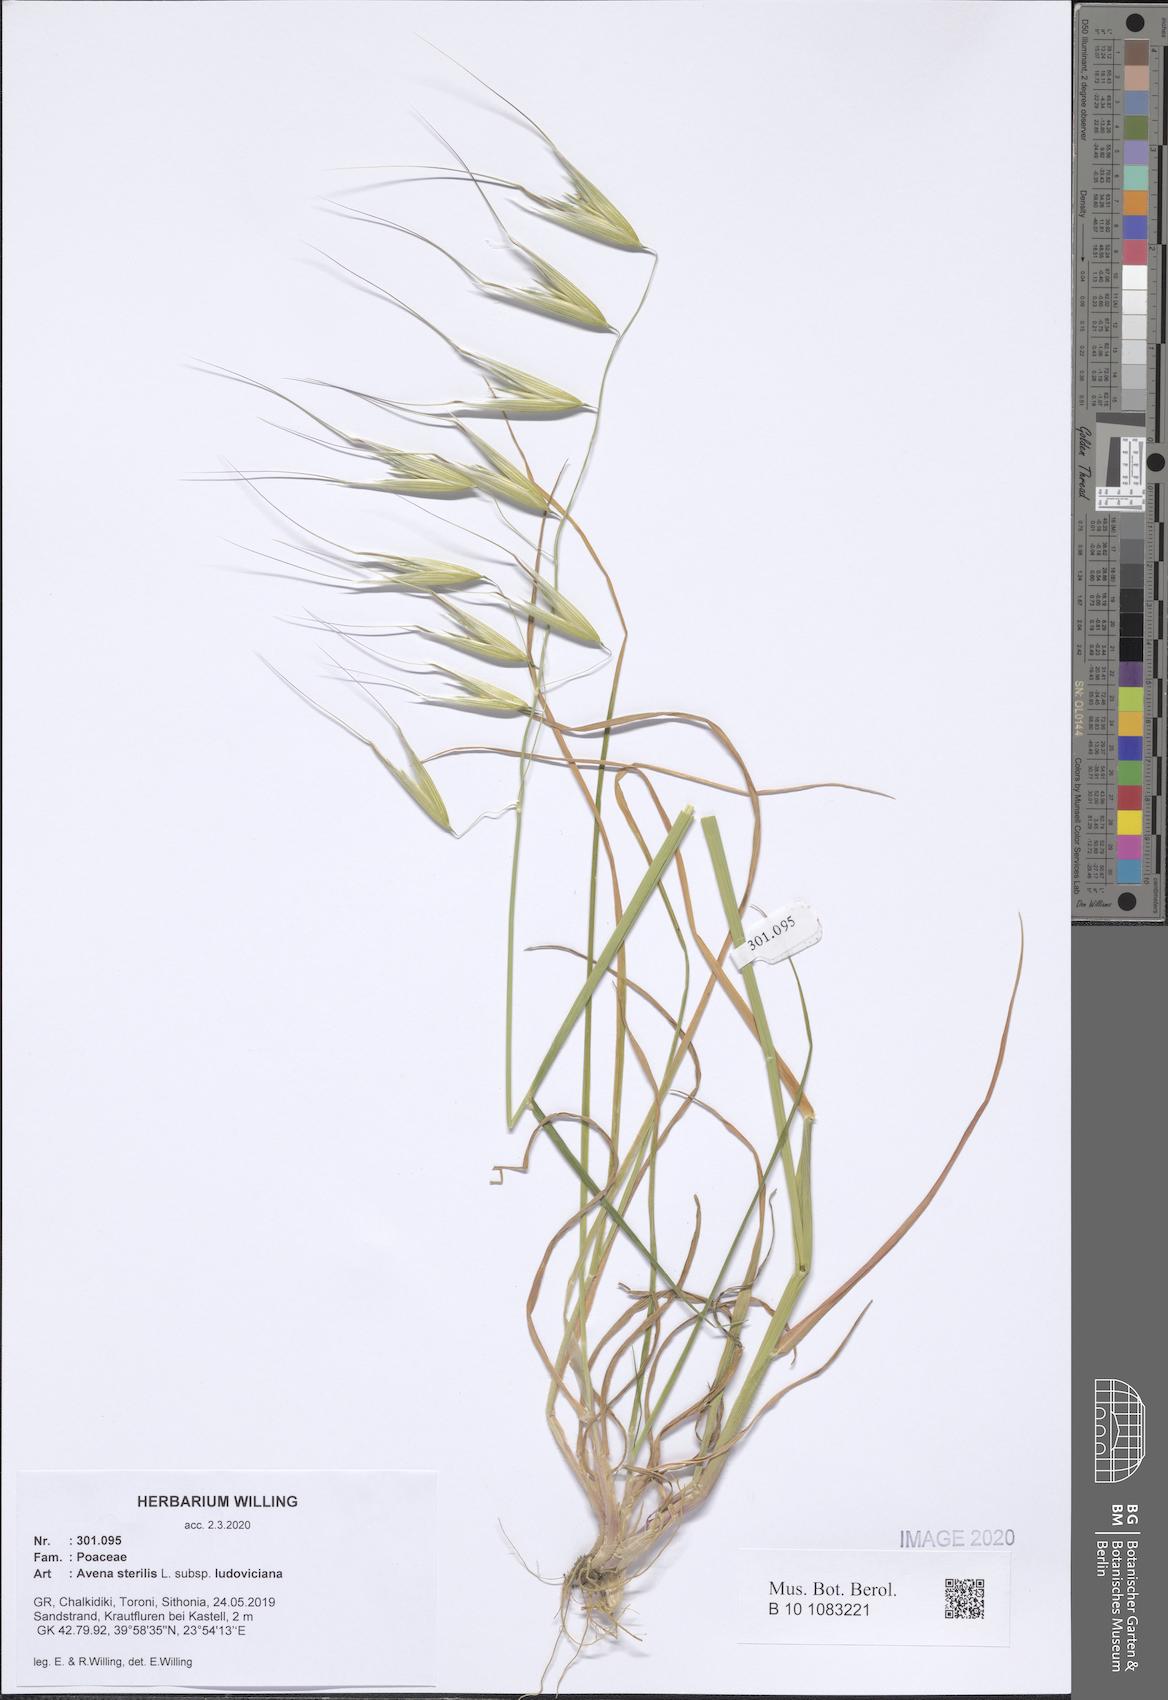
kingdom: Plantae
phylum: Tracheophyta
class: Liliopsida
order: Poales
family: Poaceae
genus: Avena
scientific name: Avena sterilis
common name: Animated oat
